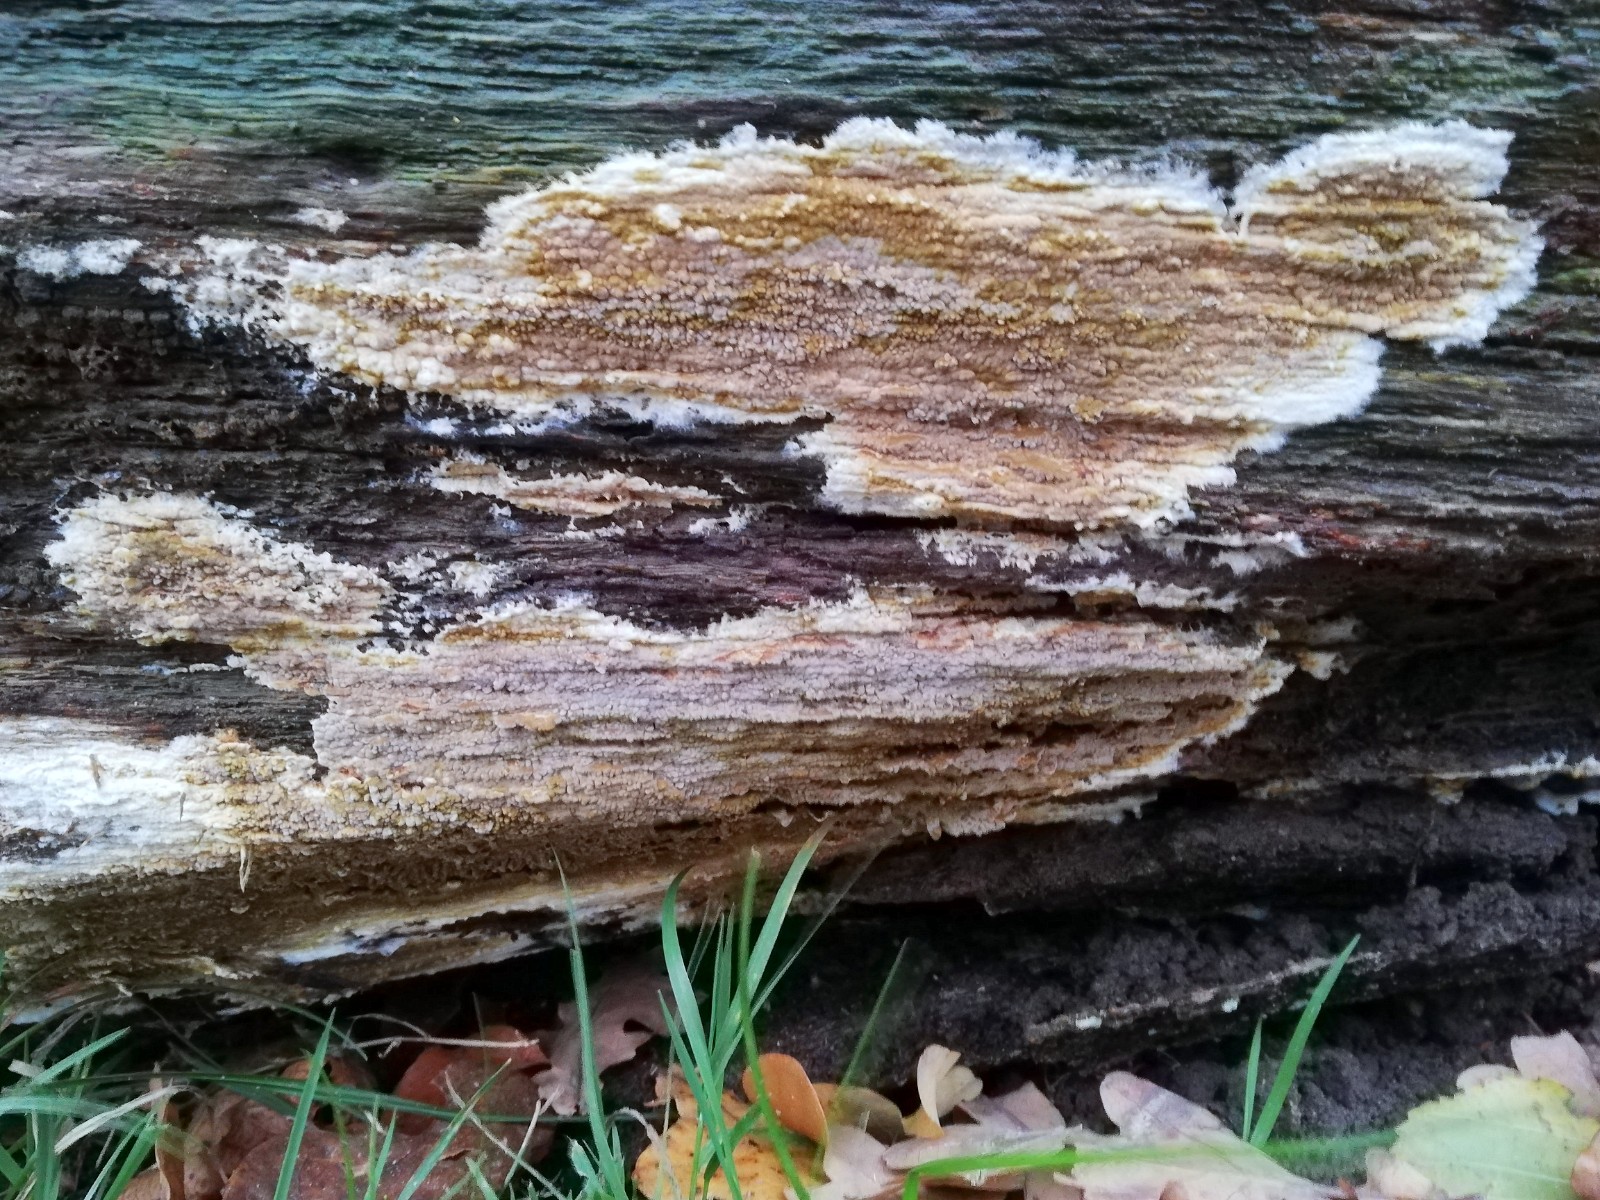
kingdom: Fungi
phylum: Basidiomycota
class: Agaricomycetes
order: Boletales
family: Coniophoraceae
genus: Coniophora
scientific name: Coniophora puteana
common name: gul tømmersvamp
